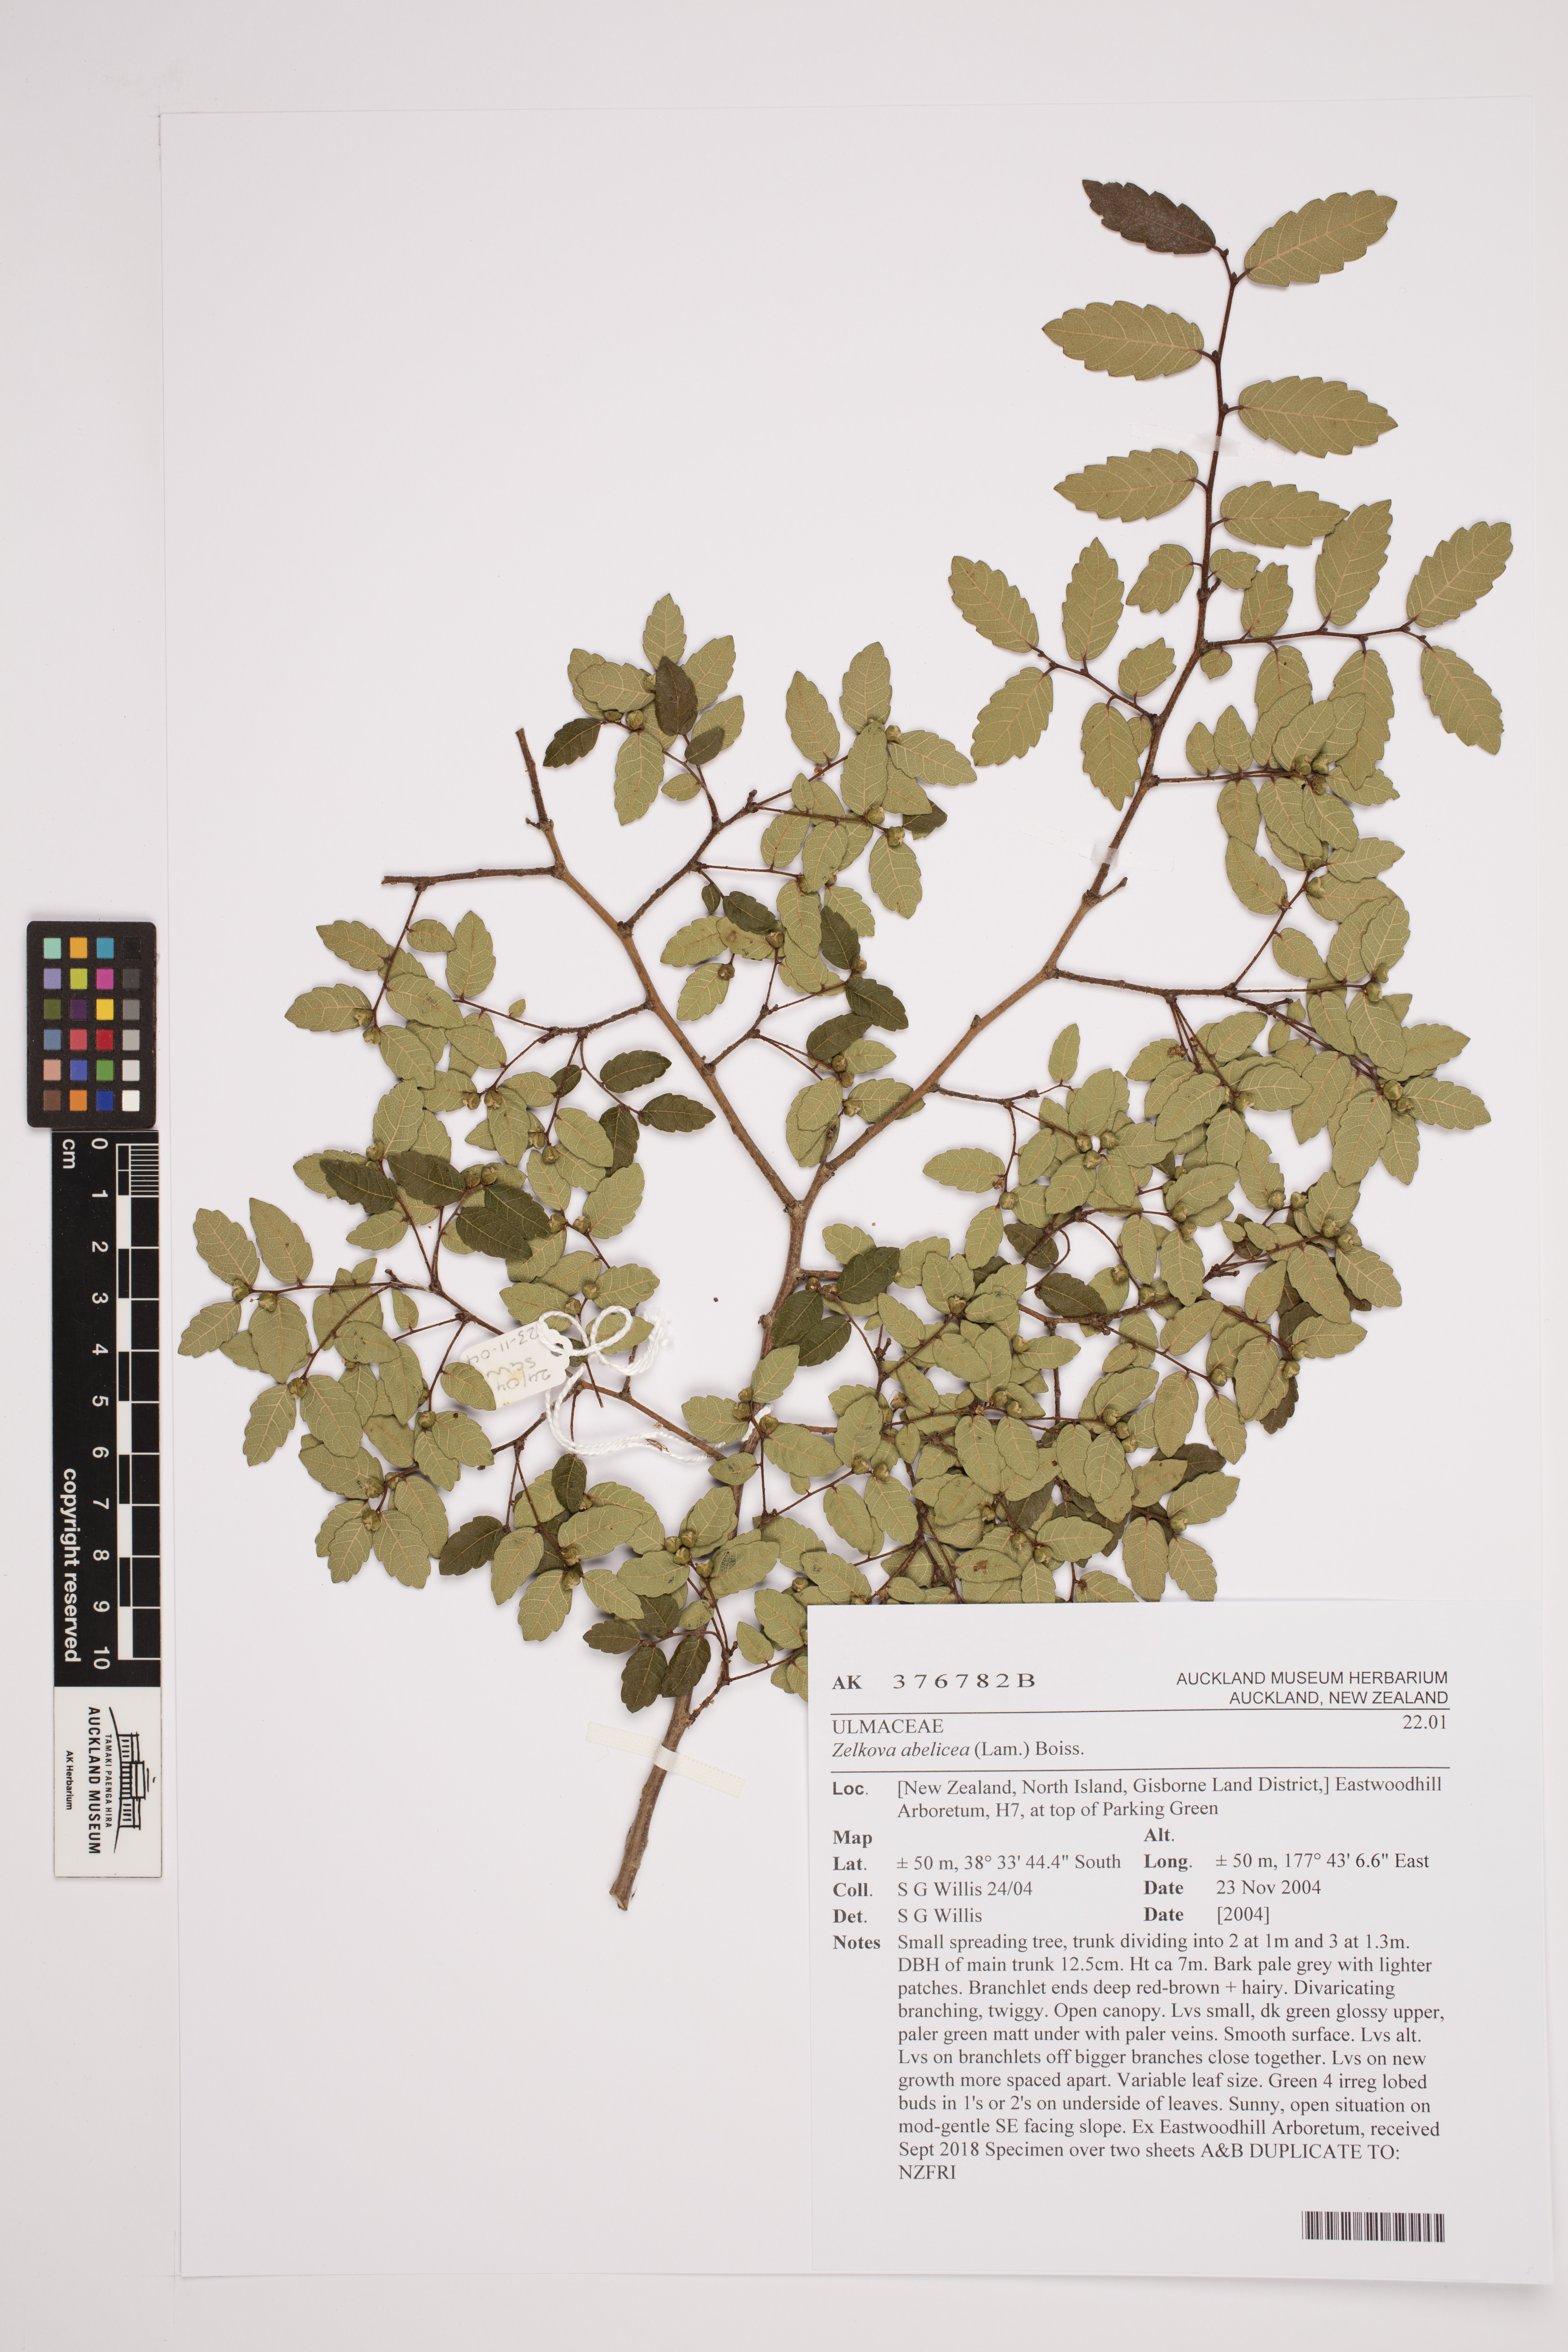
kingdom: Plantae
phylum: Tracheophyta
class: Magnoliopsida
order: Rosales
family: Ulmaceae
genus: Zelkova
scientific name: Zelkova abelicea
